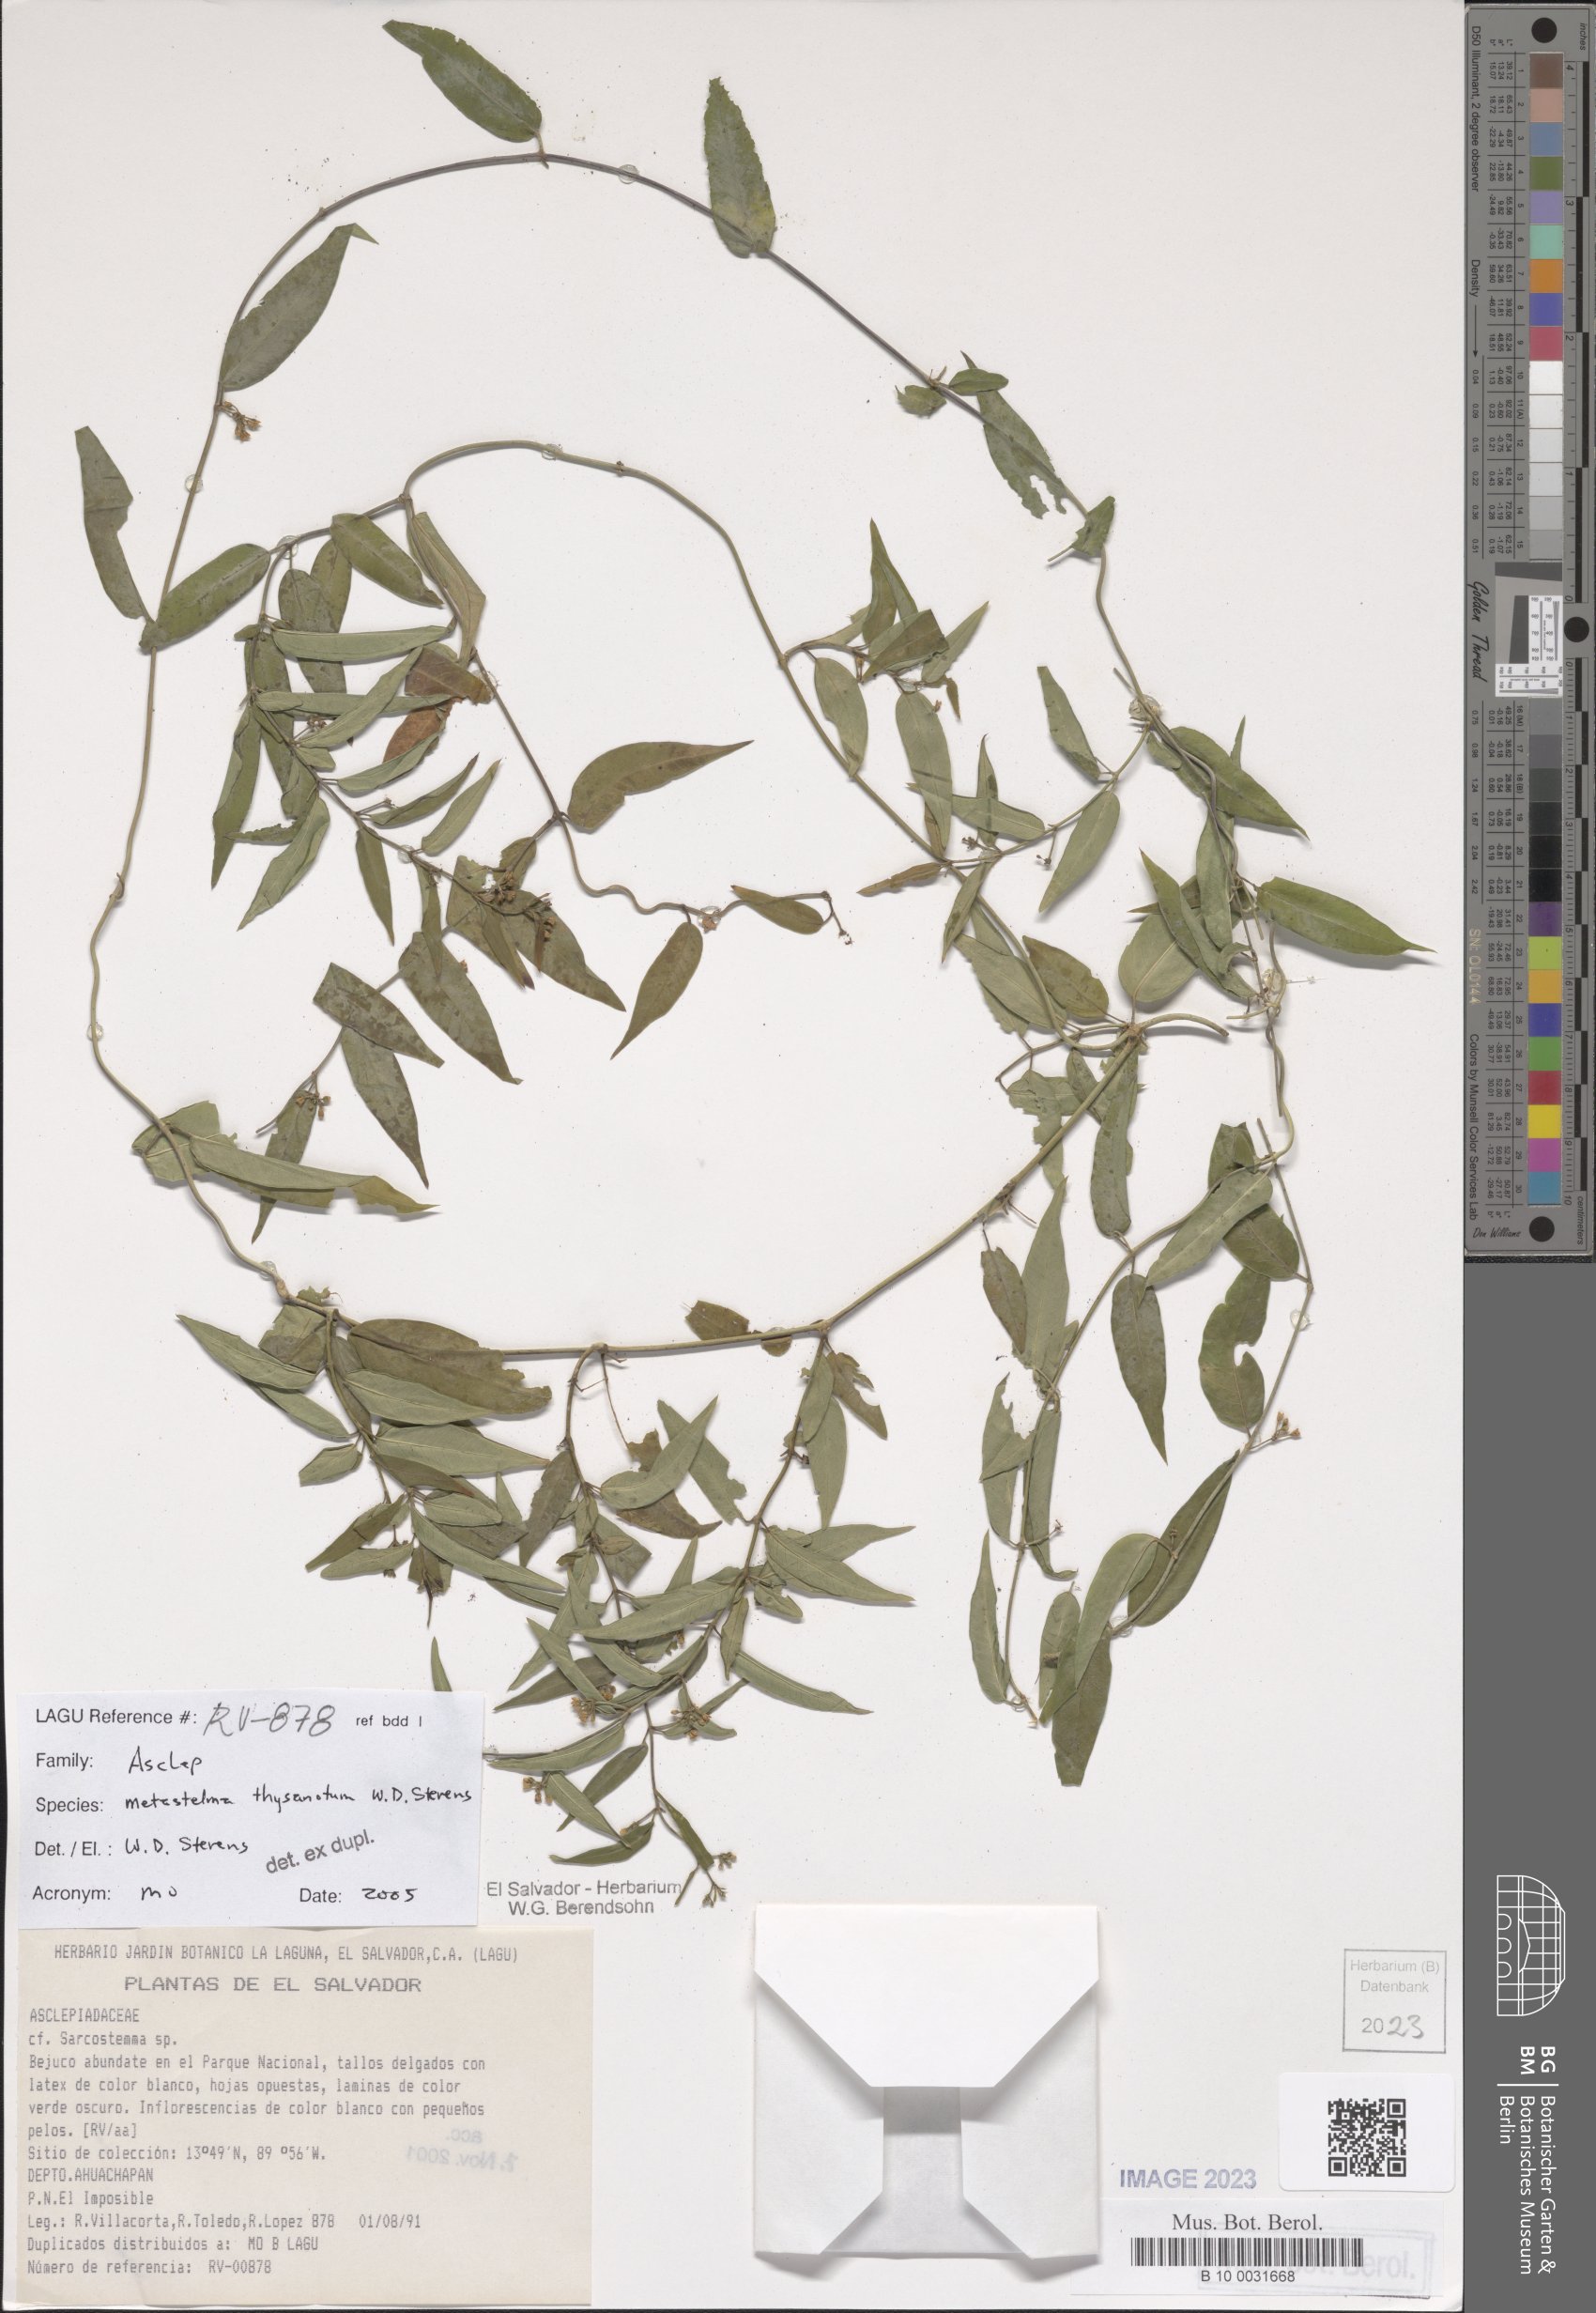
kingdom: Plantae
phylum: Tracheophyta
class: Magnoliopsida
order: Gentianales
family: Apocynaceae
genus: Metastelma
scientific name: Metastelma thysanotum
